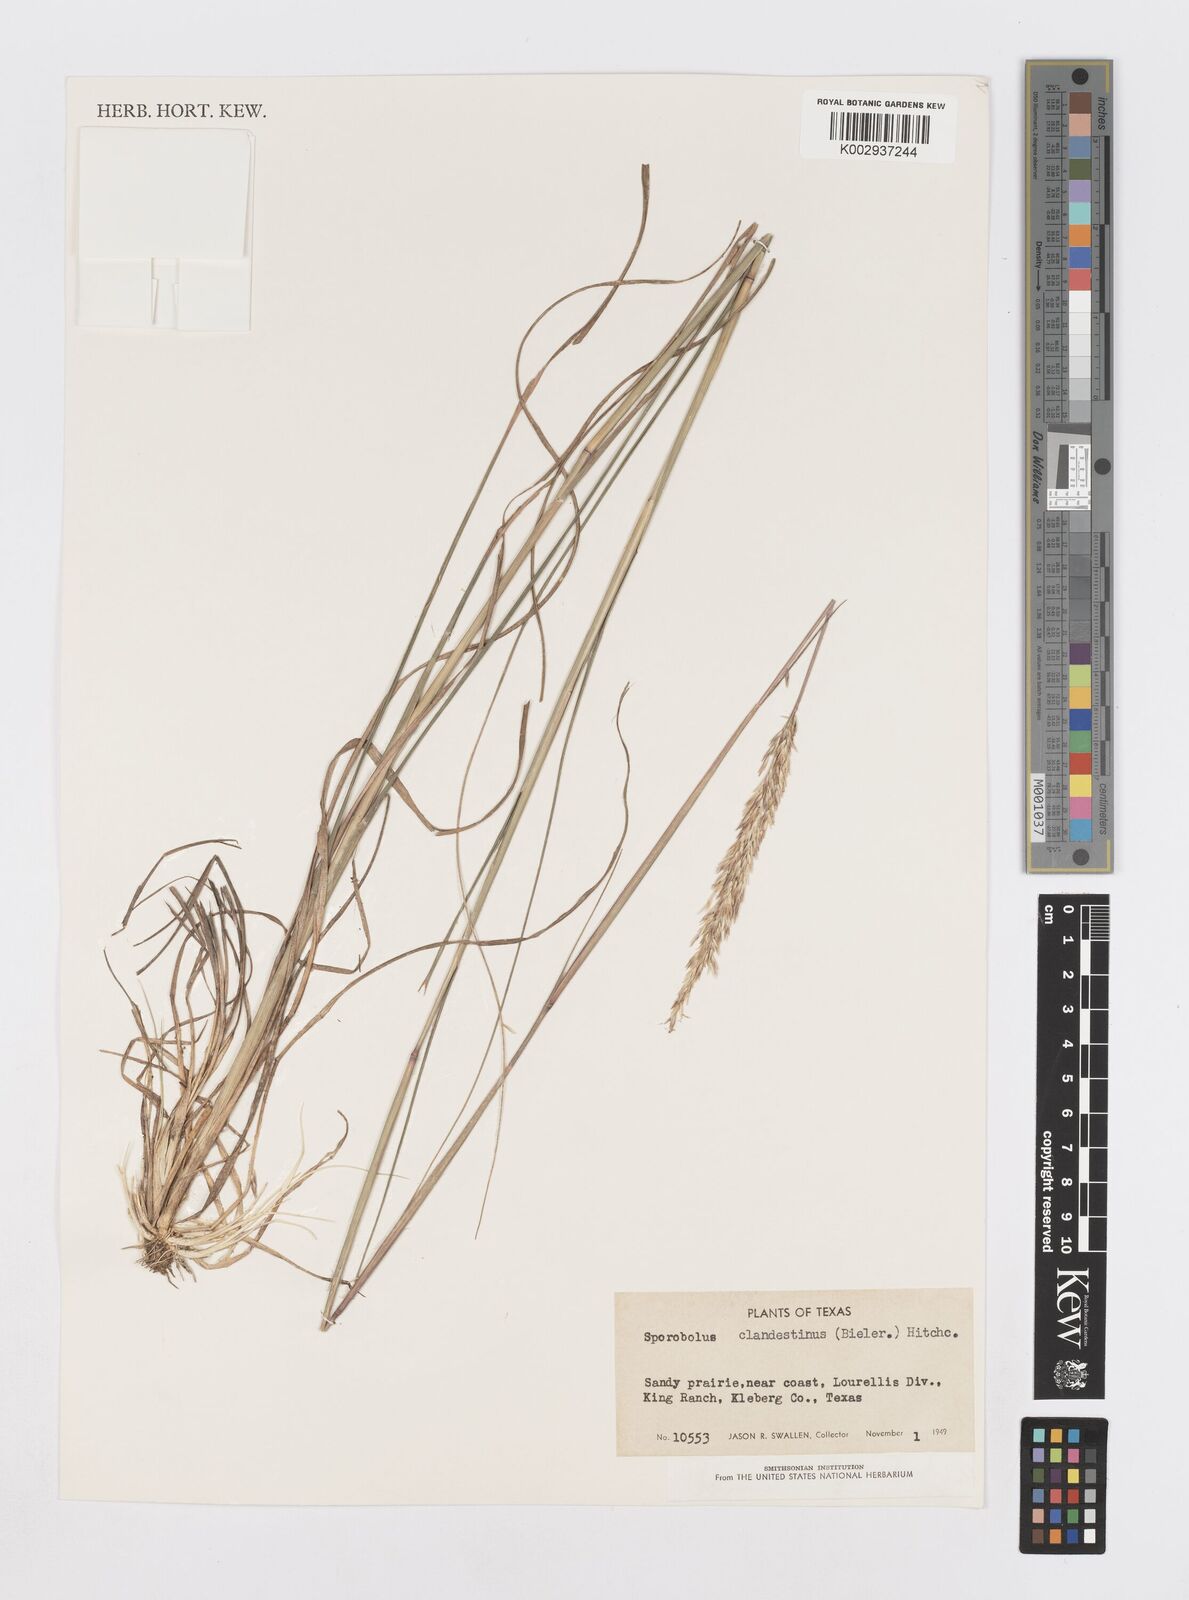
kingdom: Plantae
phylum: Tracheophyta
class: Liliopsida
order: Poales
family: Poaceae
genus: Sporobolus
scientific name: Sporobolus clandestinus
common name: Hidden dropseed
